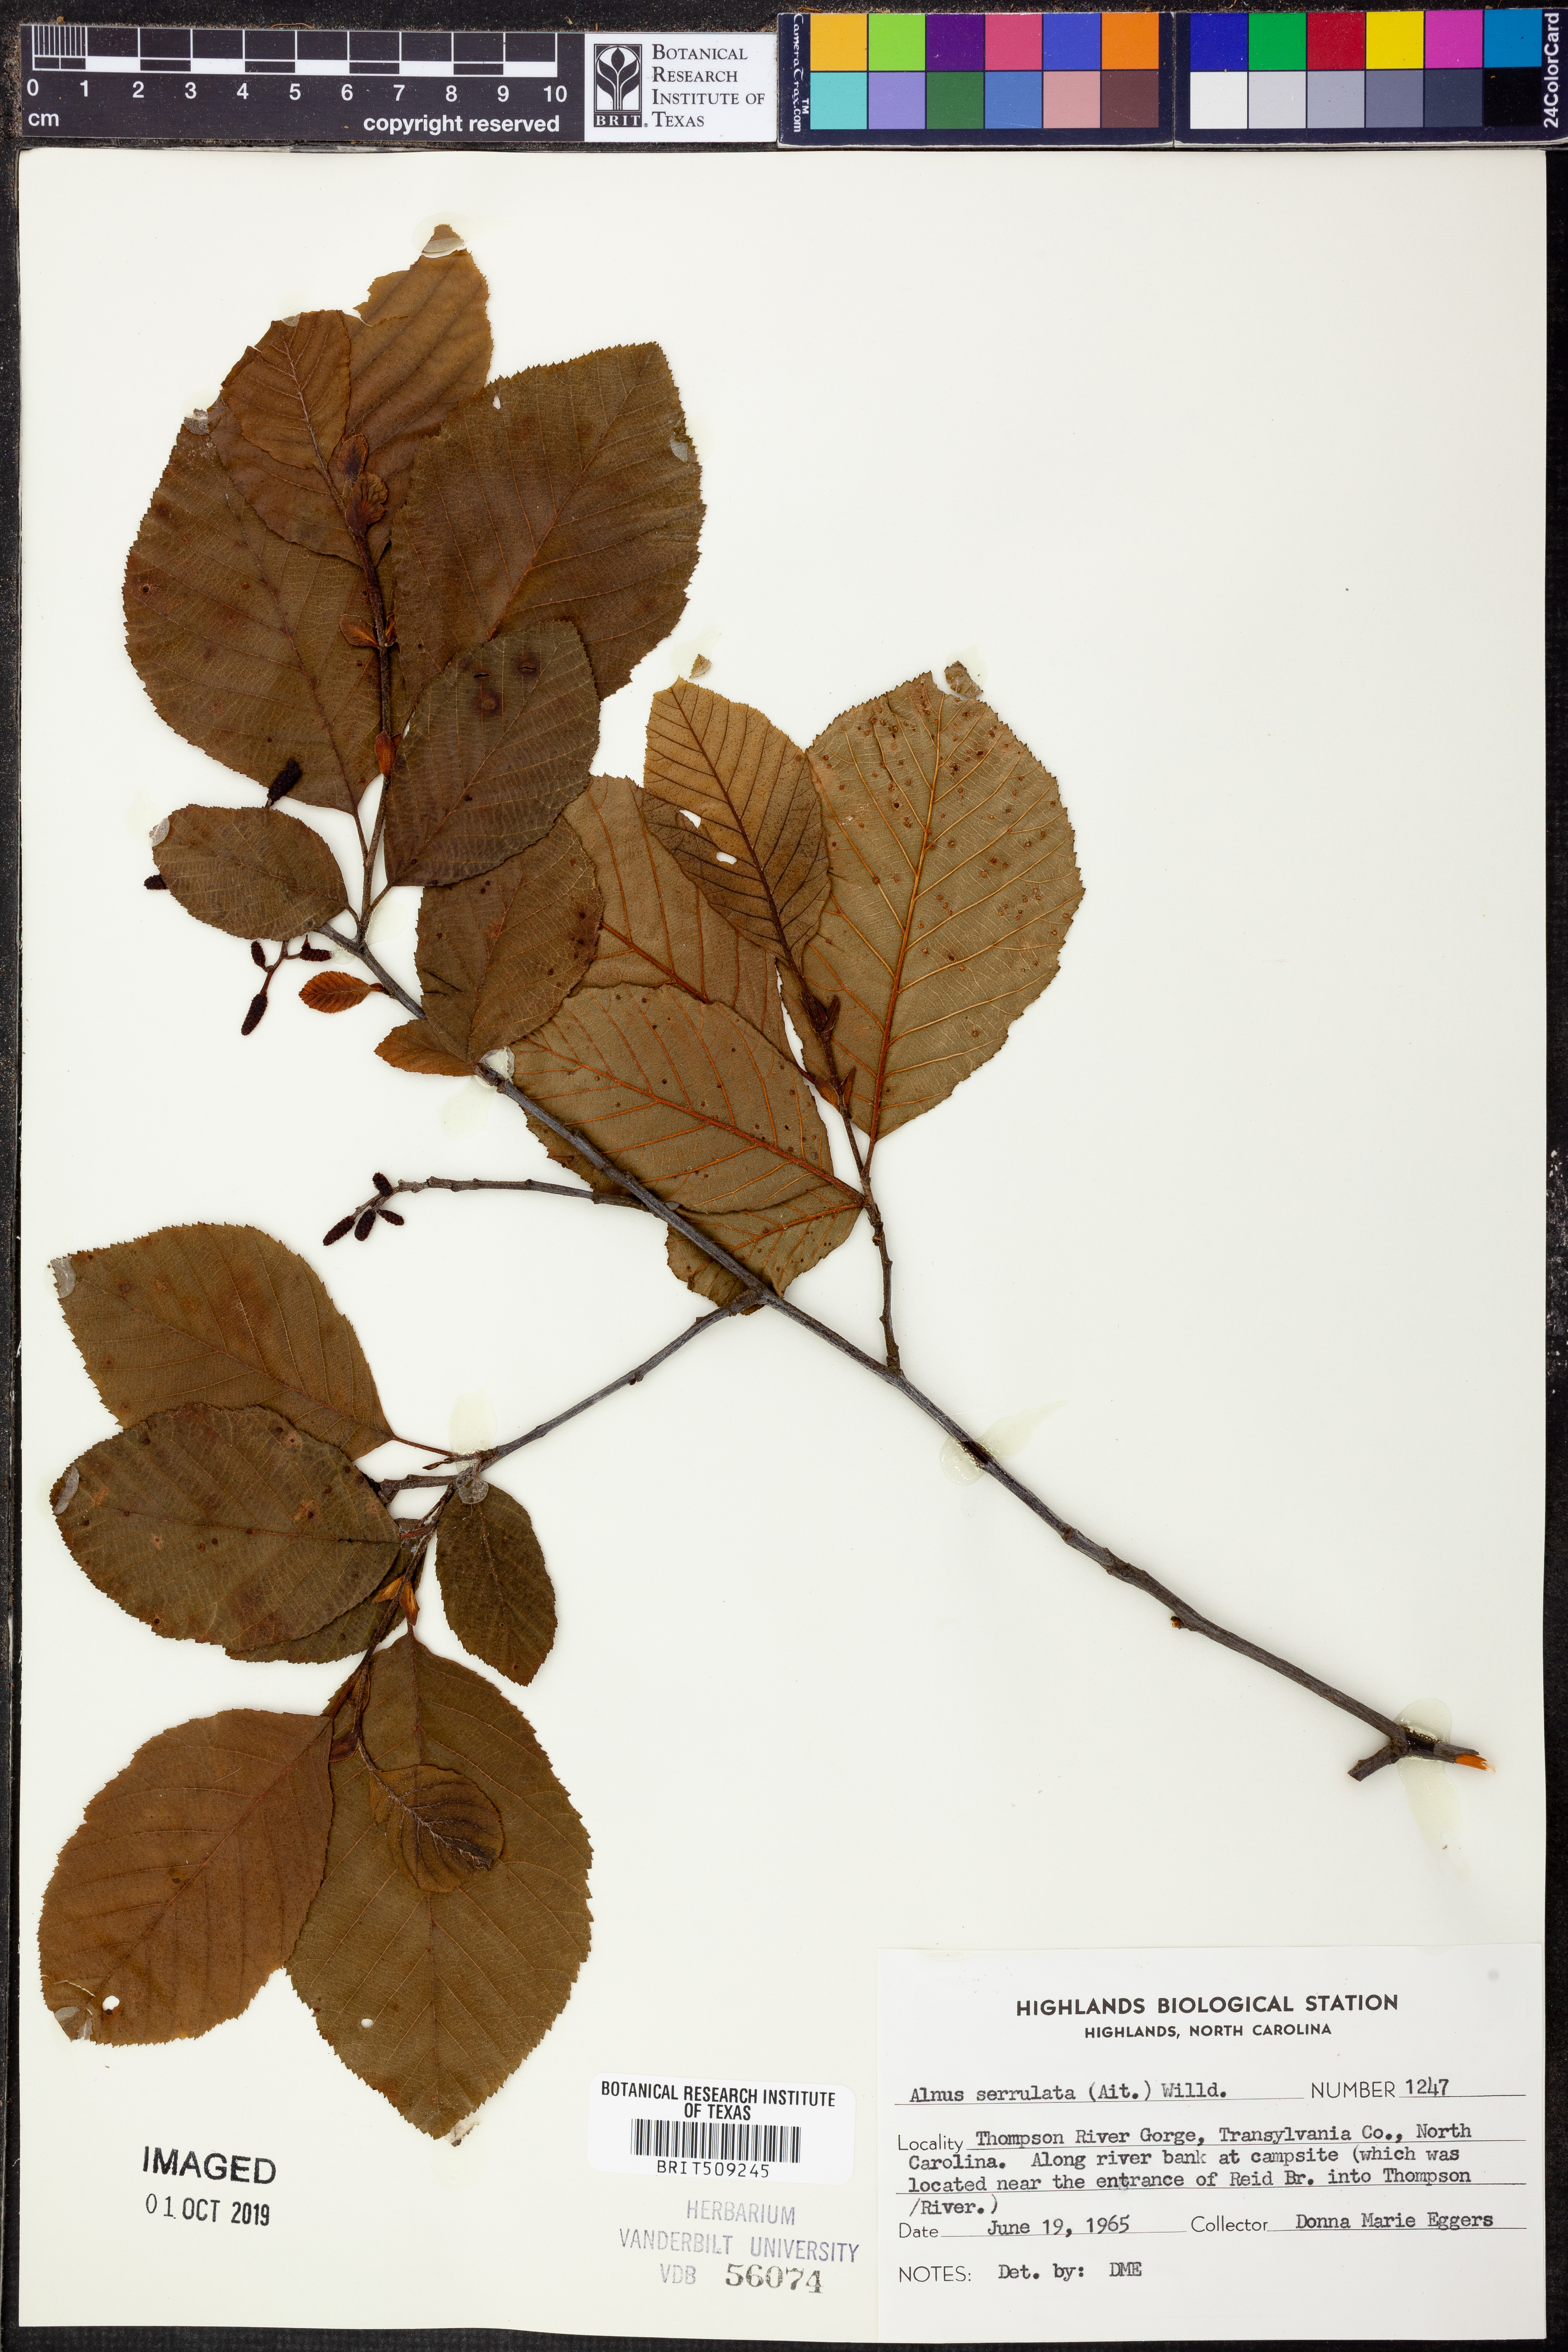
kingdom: Plantae
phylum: Tracheophyta
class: Magnoliopsida
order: Fagales
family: Betulaceae
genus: Alnus
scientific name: Alnus serrulata
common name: Hazel alder
